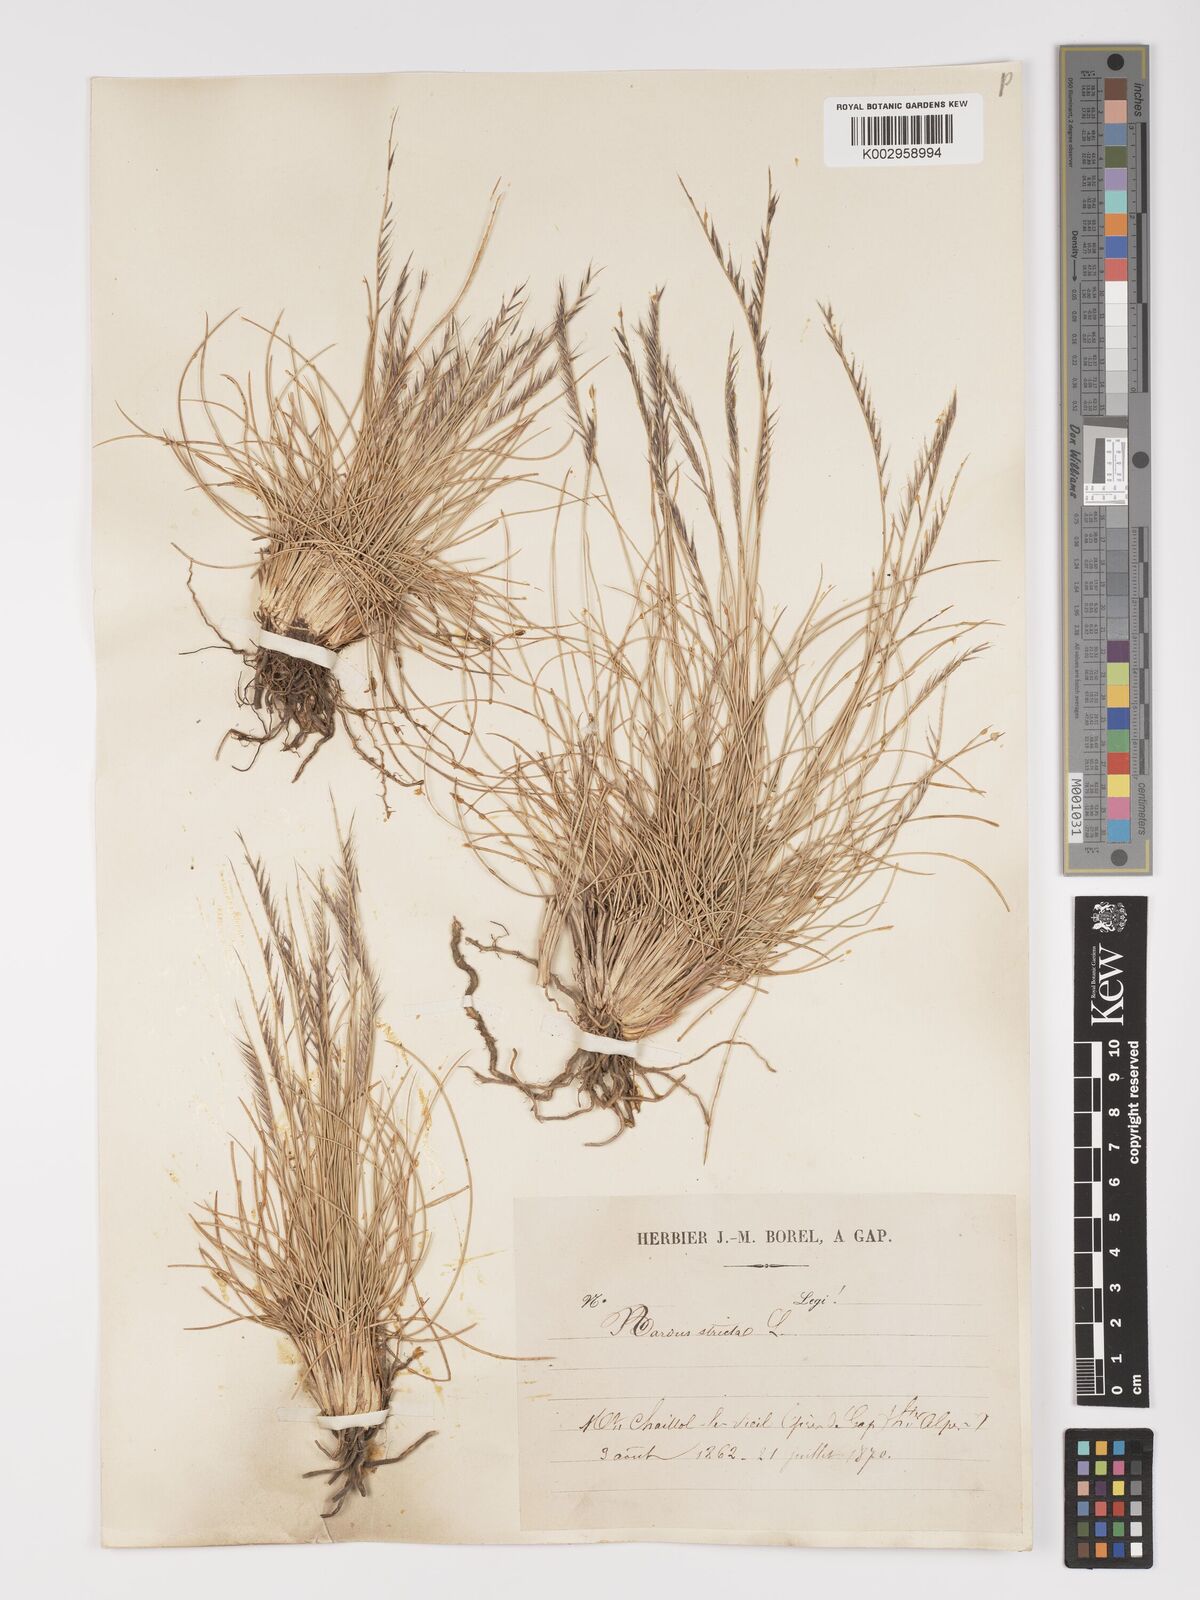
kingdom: Plantae
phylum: Tracheophyta
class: Liliopsida
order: Poales
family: Poaceae
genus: Nardus
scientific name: Nardus stricta
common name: Mat-grass
